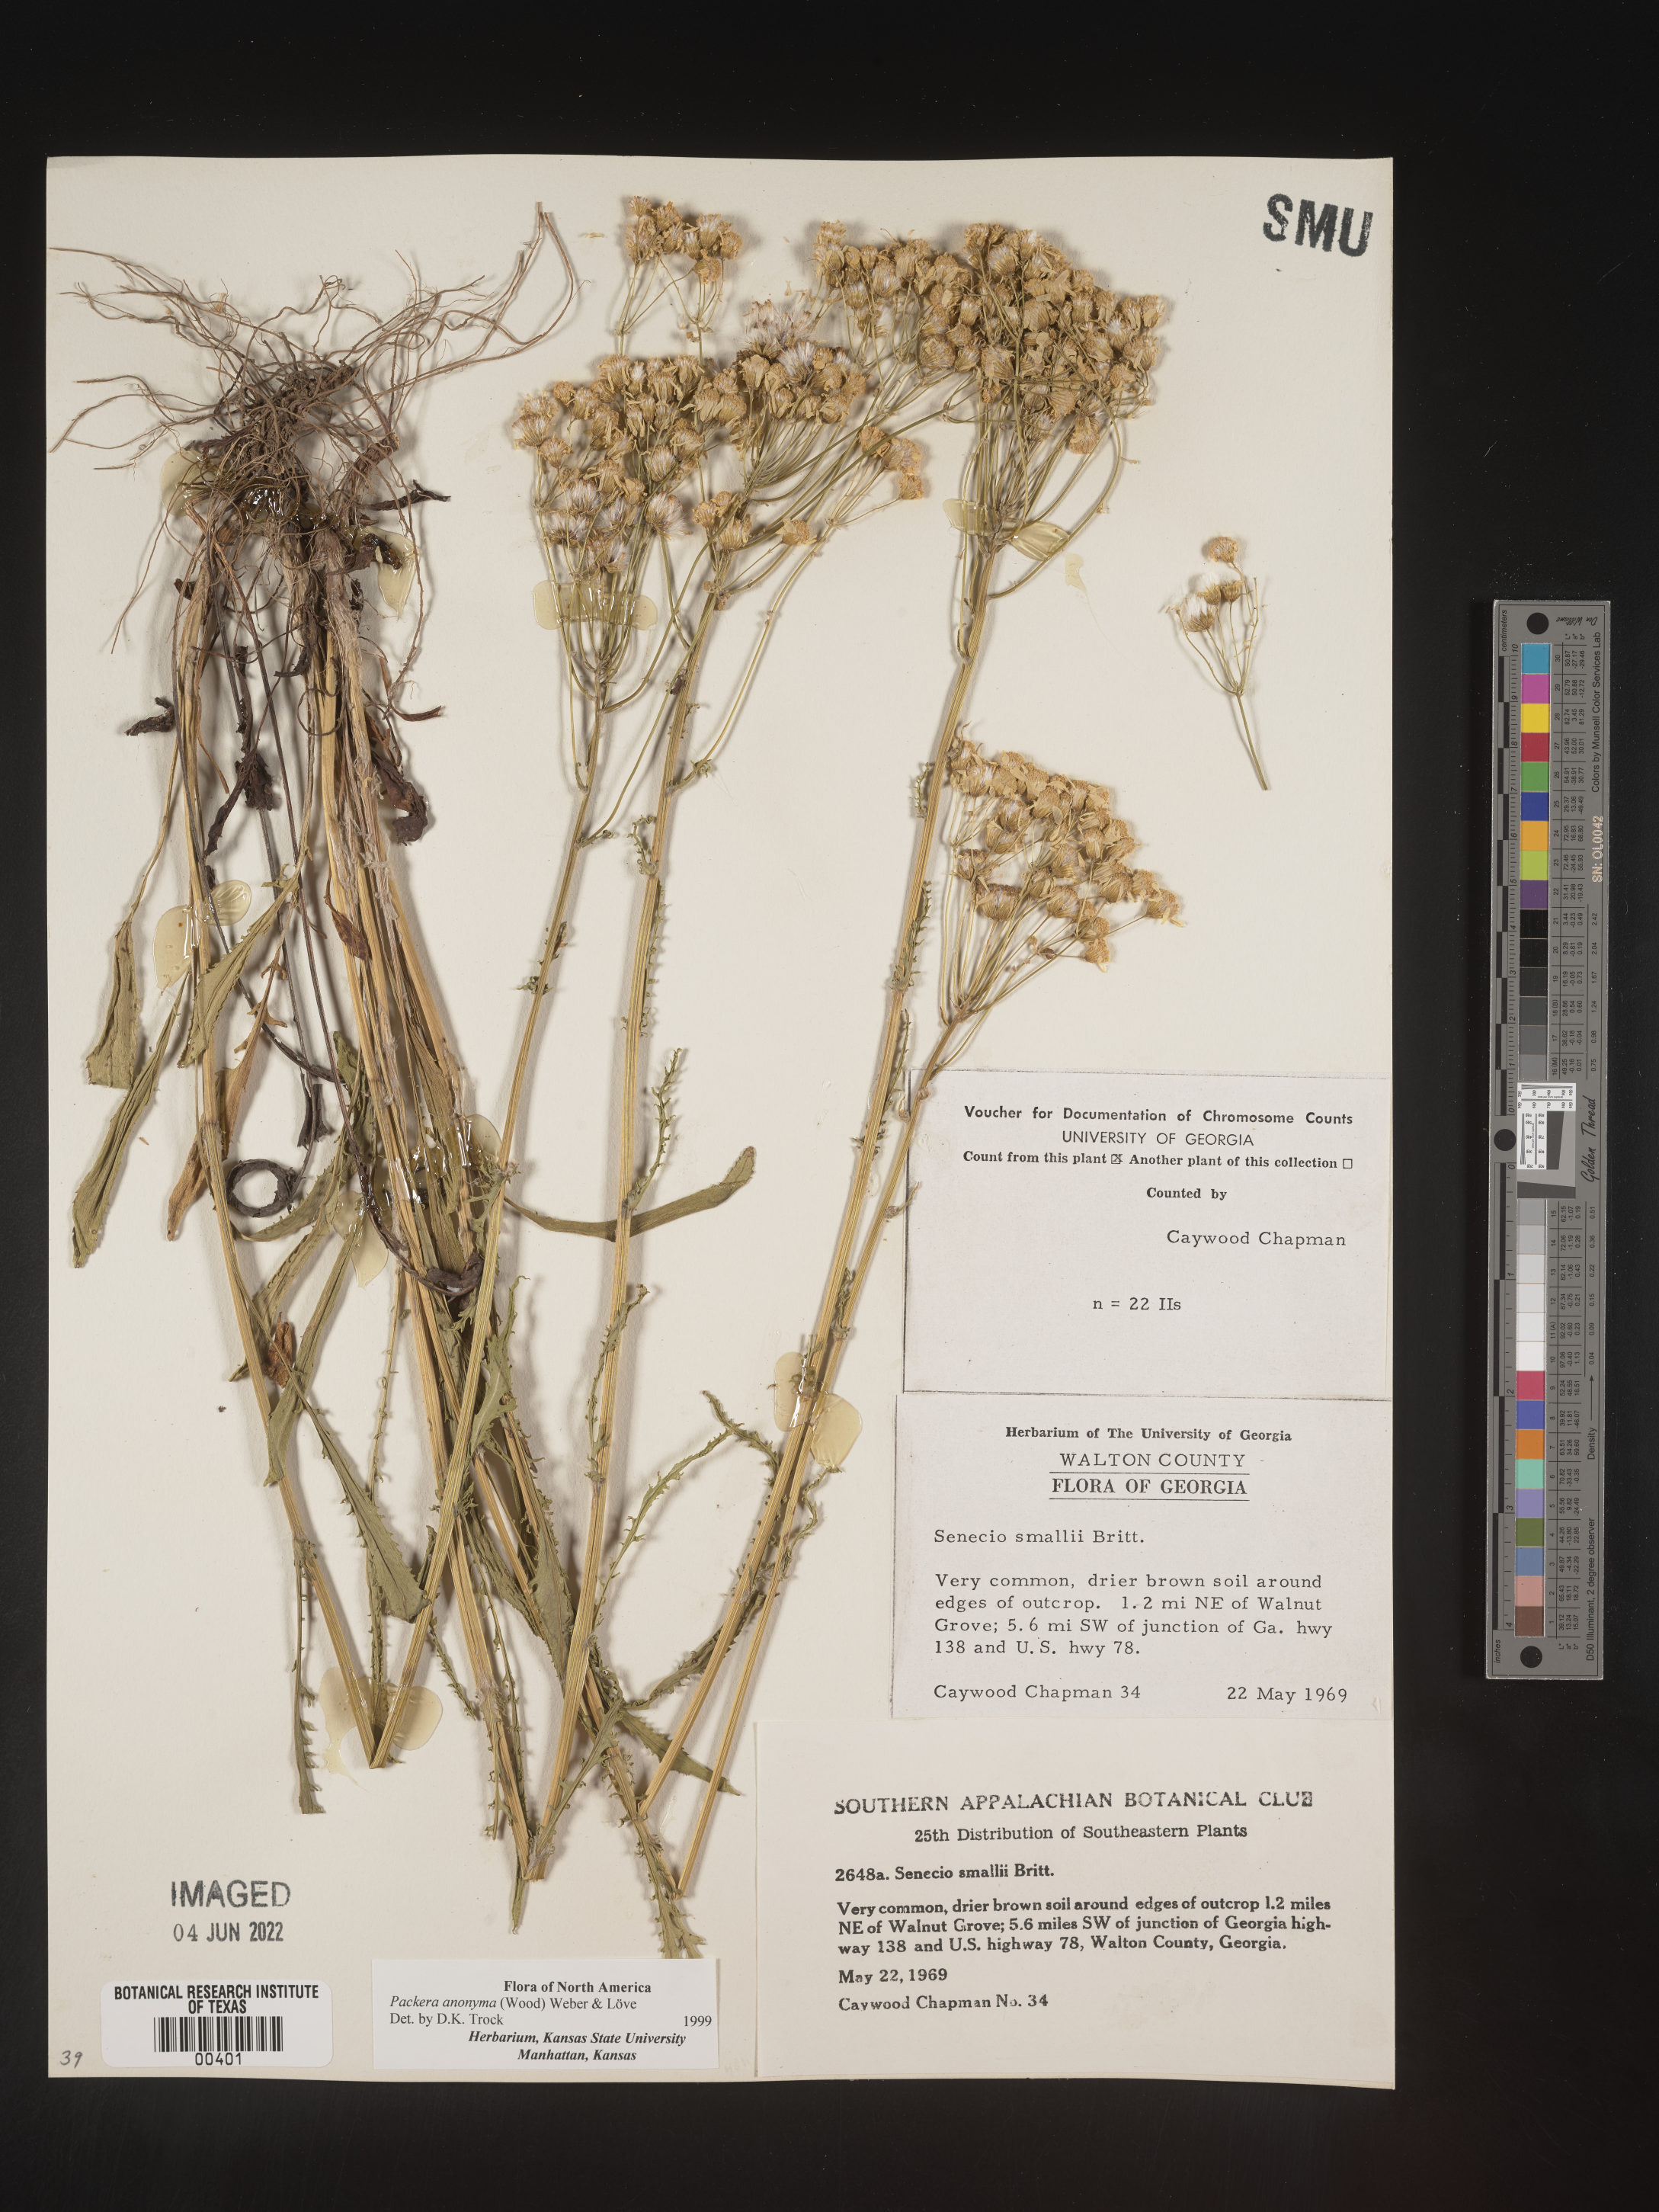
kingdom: Plantae
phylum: Tracheophyta
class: Magnoliopsida
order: Asterales
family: Asteraceae
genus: Packera
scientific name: Packera anonyma
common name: Small ragwort
